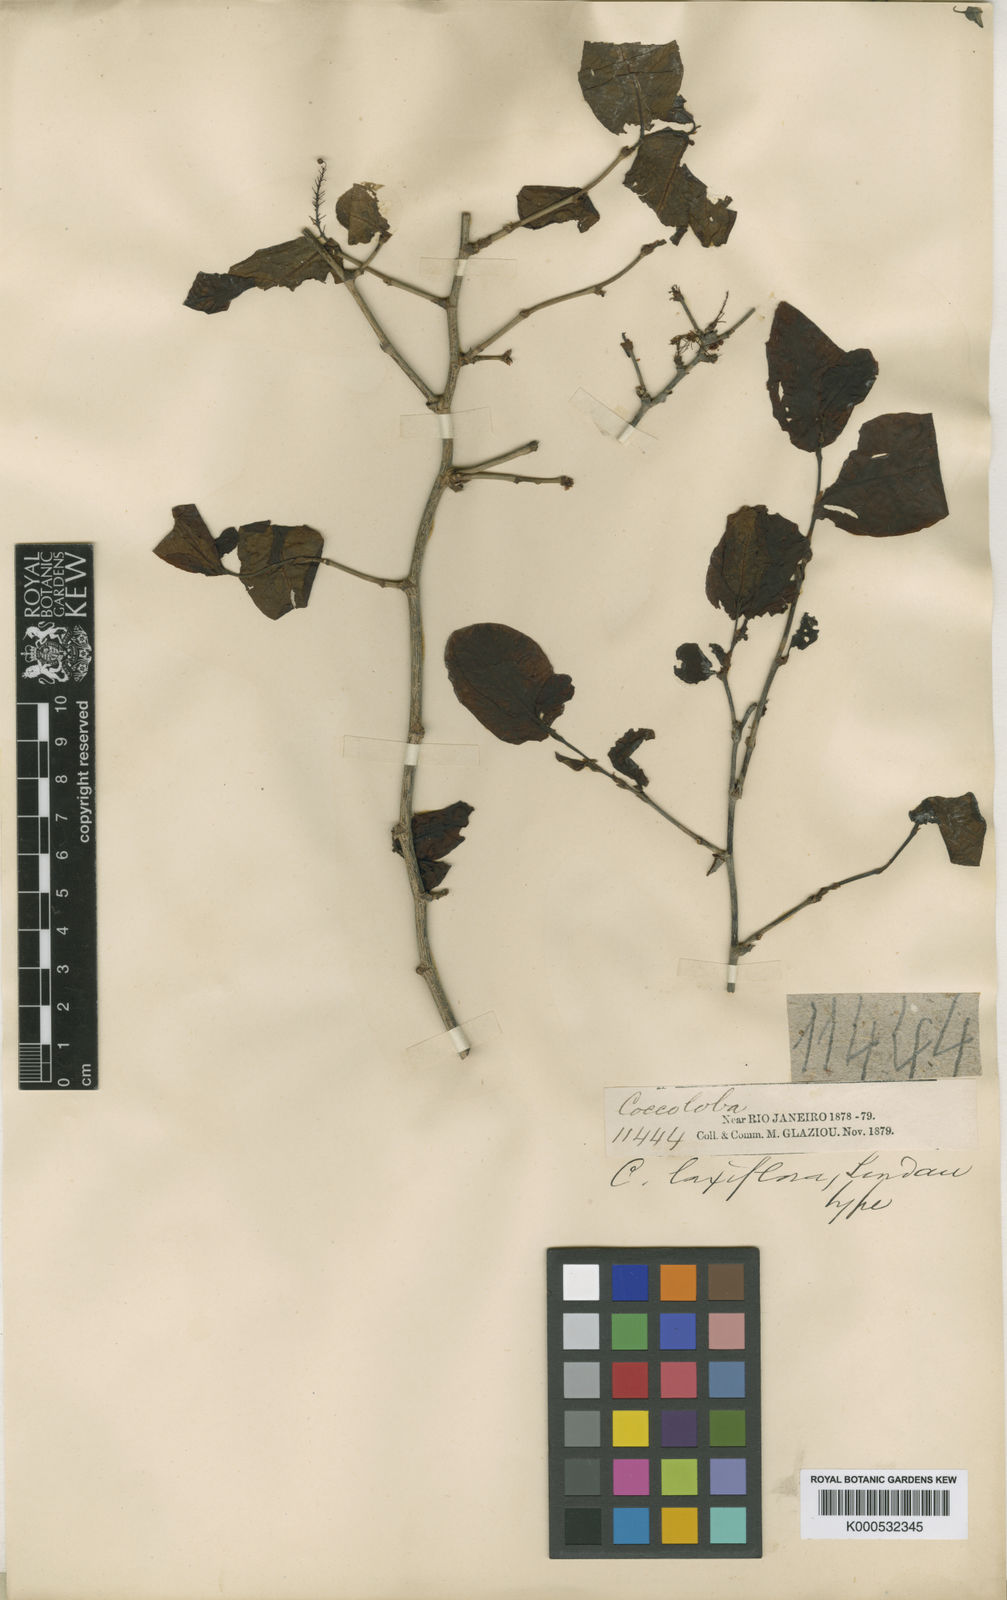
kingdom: Plantae
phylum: Tracheophyta
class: Magnoliopsida
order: Caryophyllales
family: Polygonaceae
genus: Coccoloba
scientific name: Coccoloba ramosisissima
